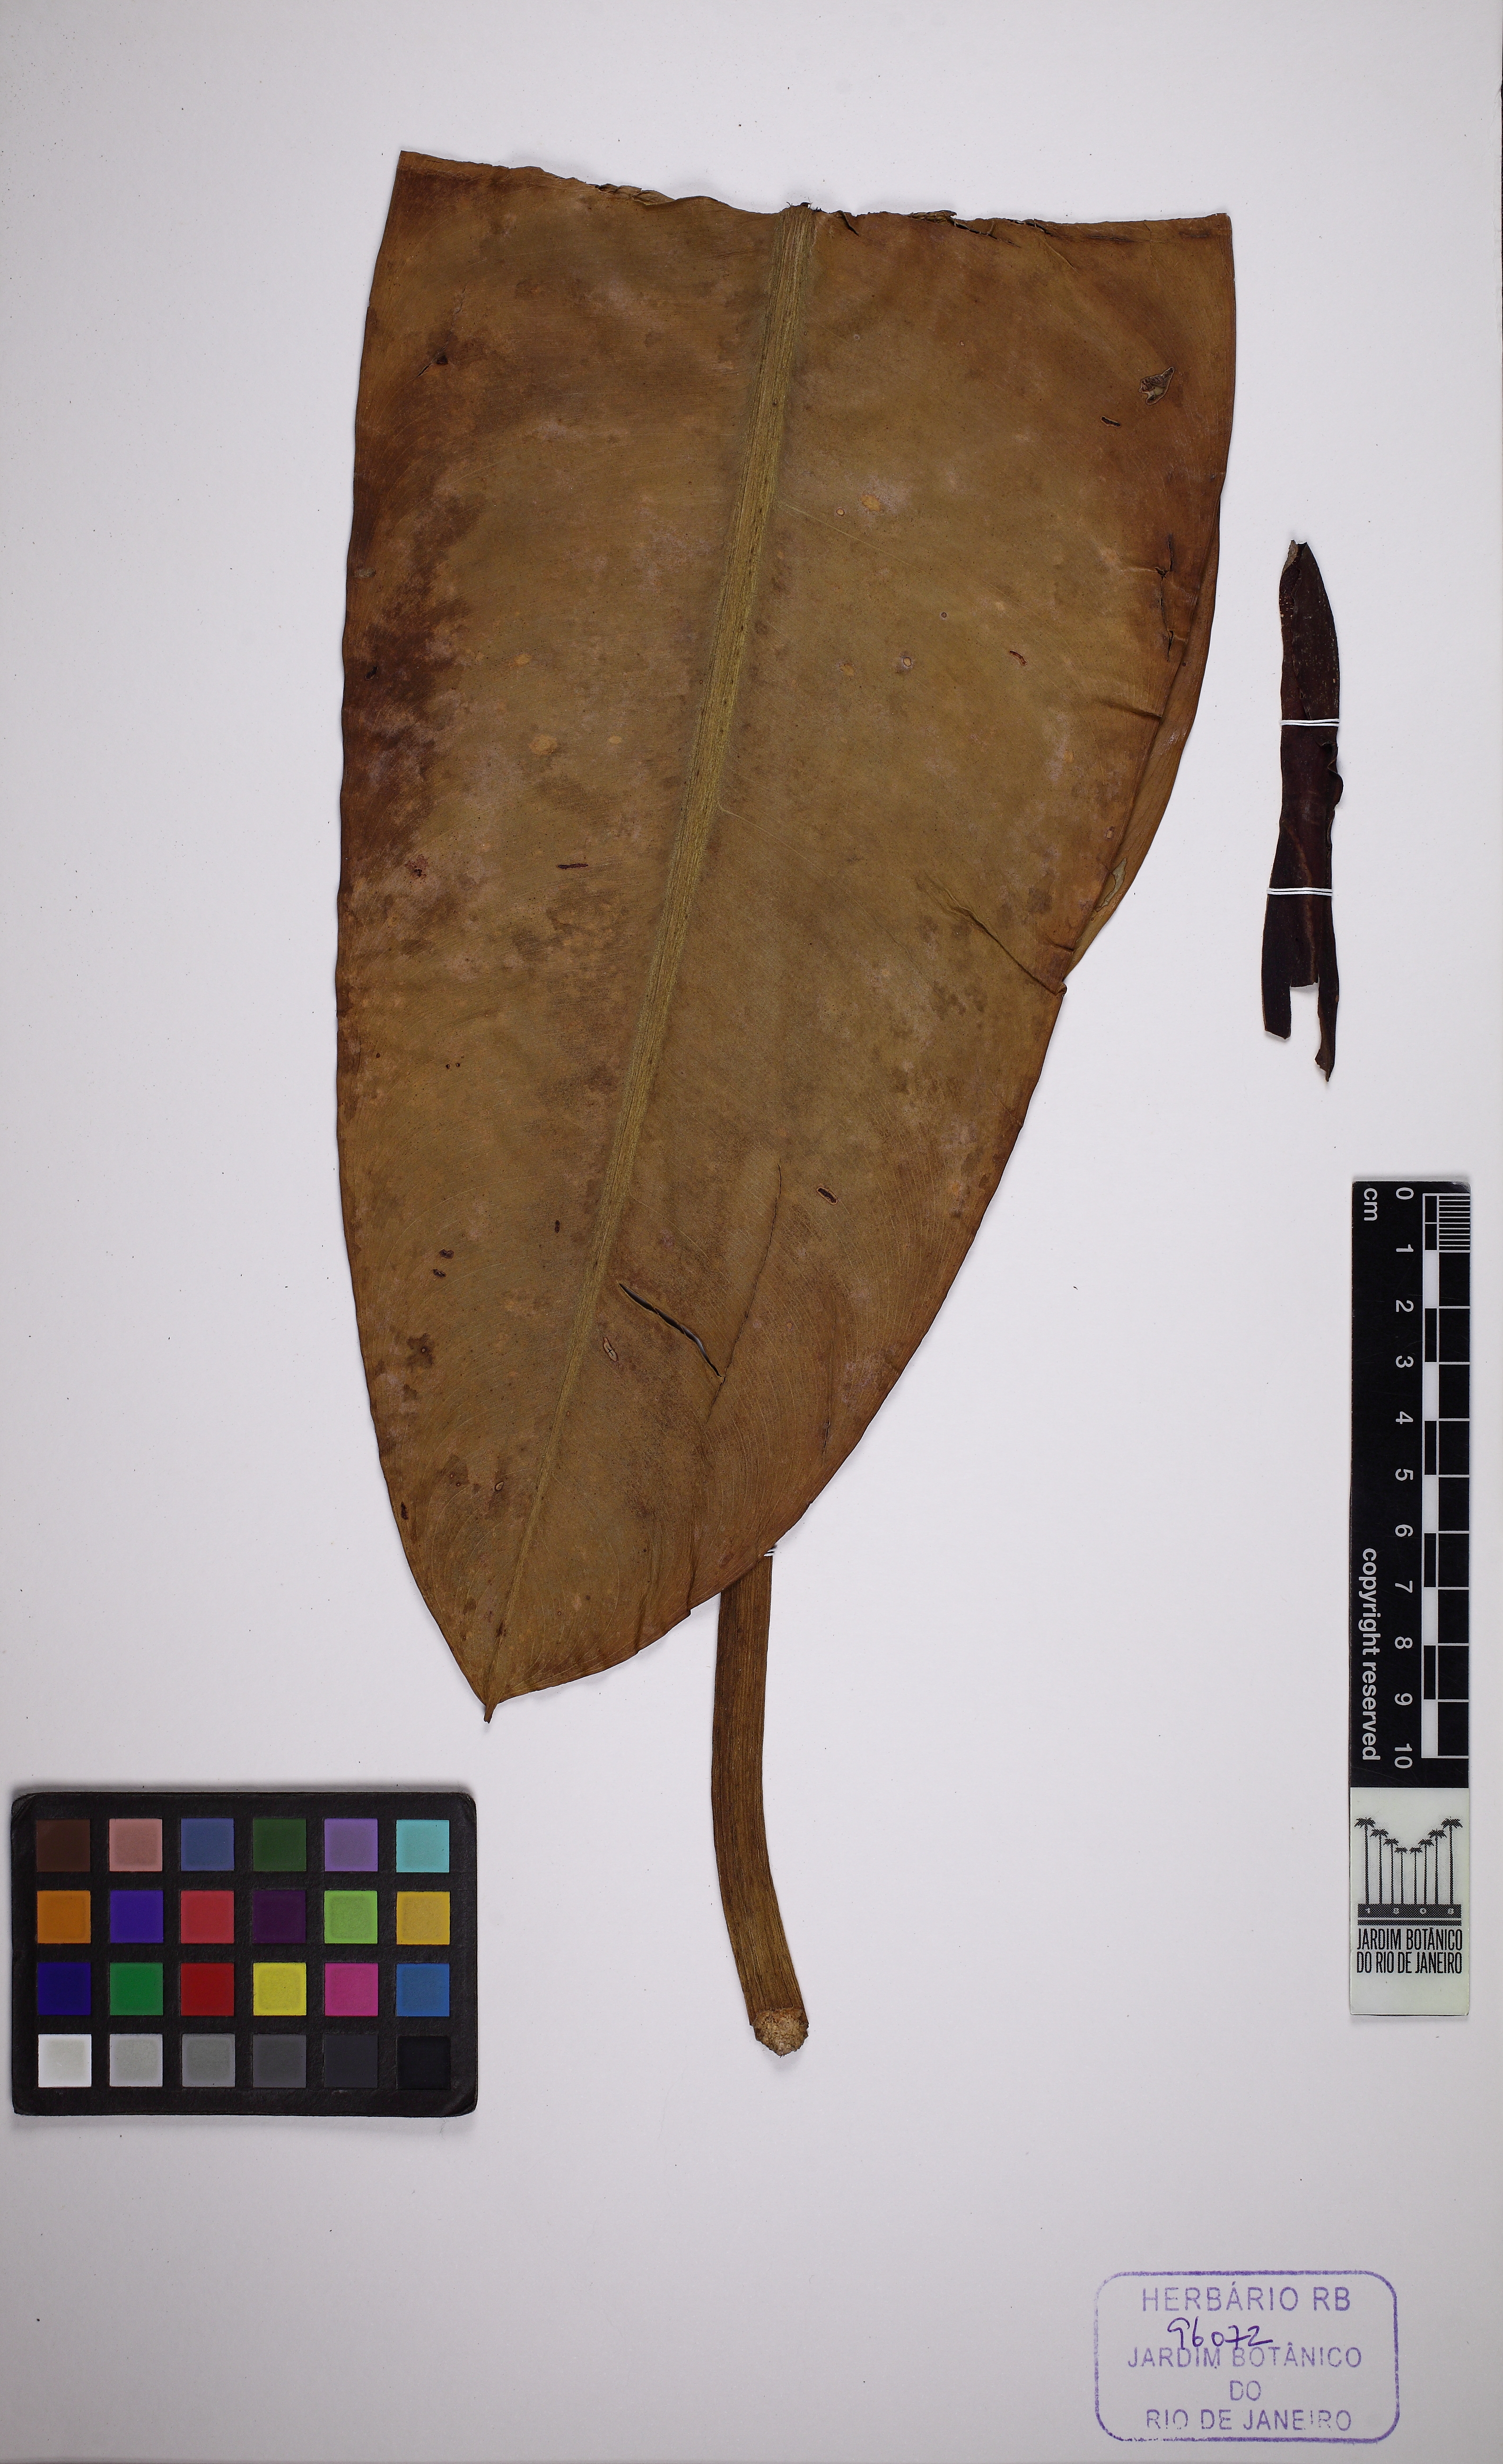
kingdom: Plantae
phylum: Tracheophyta
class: Liliopsida
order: Alismatales
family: Araceae
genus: Philodendron
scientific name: Philodendron edmundoi
